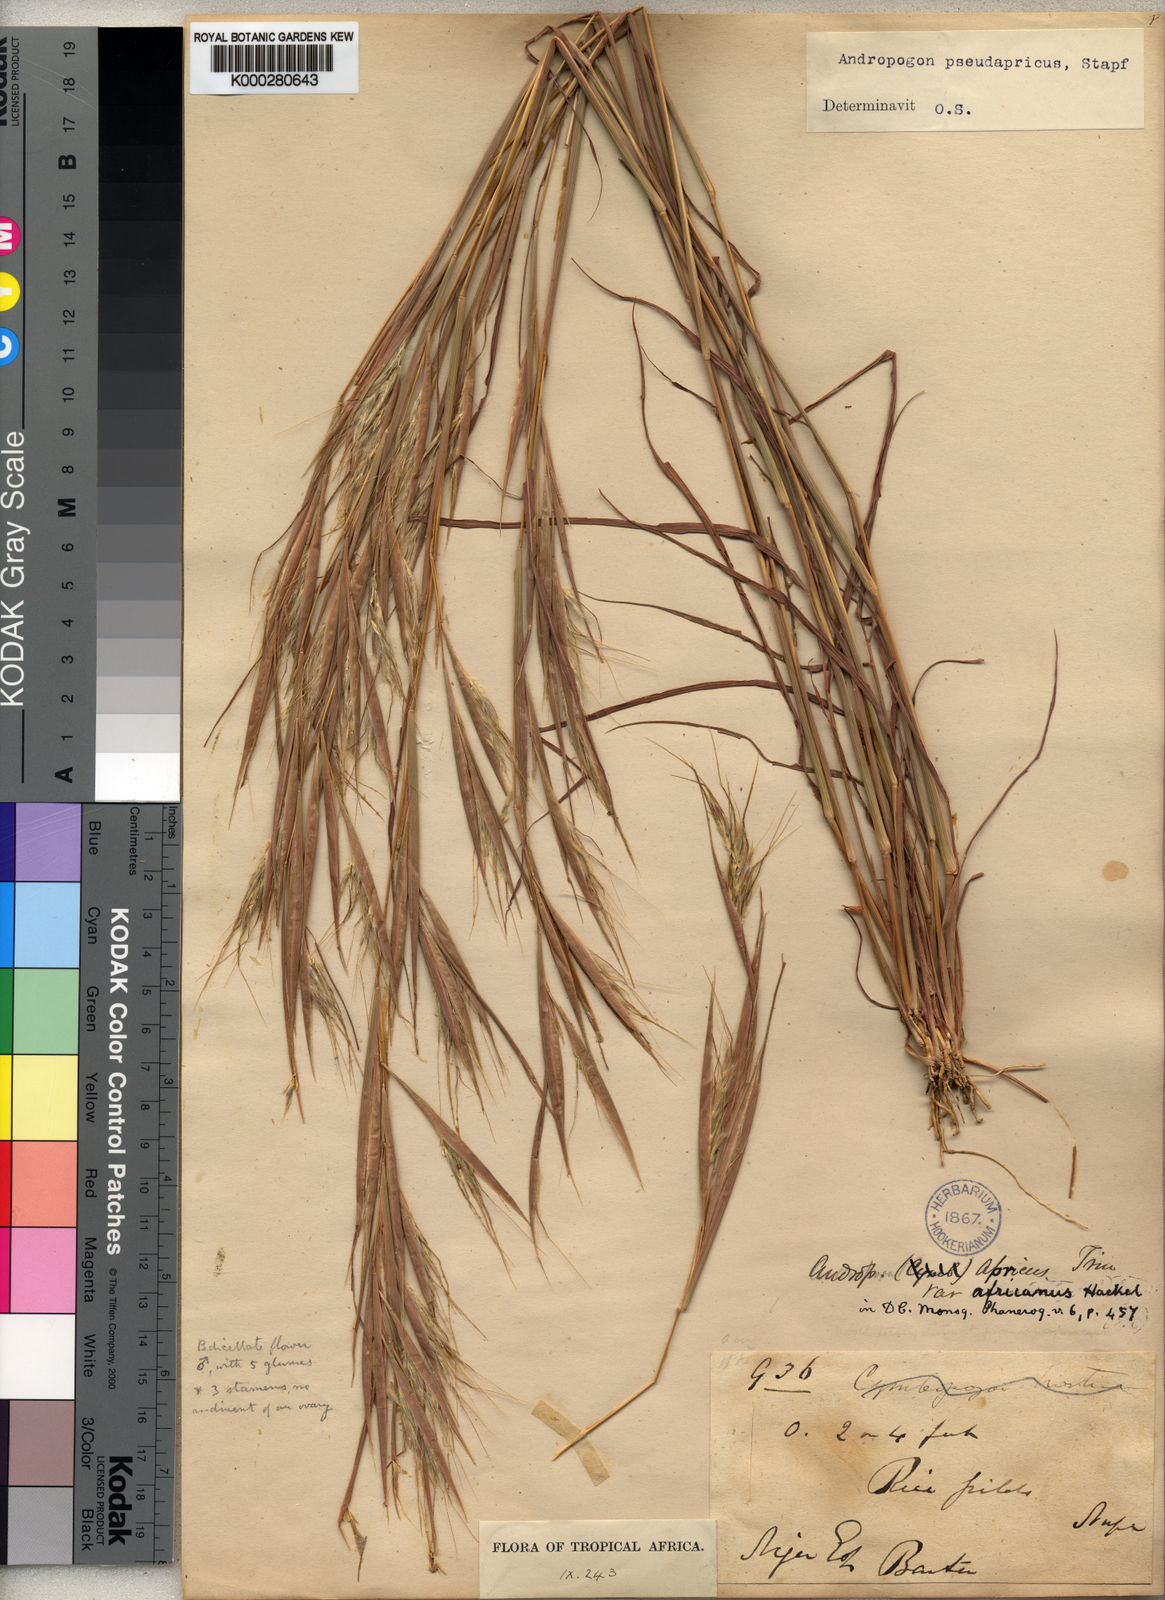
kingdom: Plantae
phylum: Tracheophyta
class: Liliopsida
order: Poales
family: Poaceae
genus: Andropogon
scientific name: Andropogon pseudapricus
